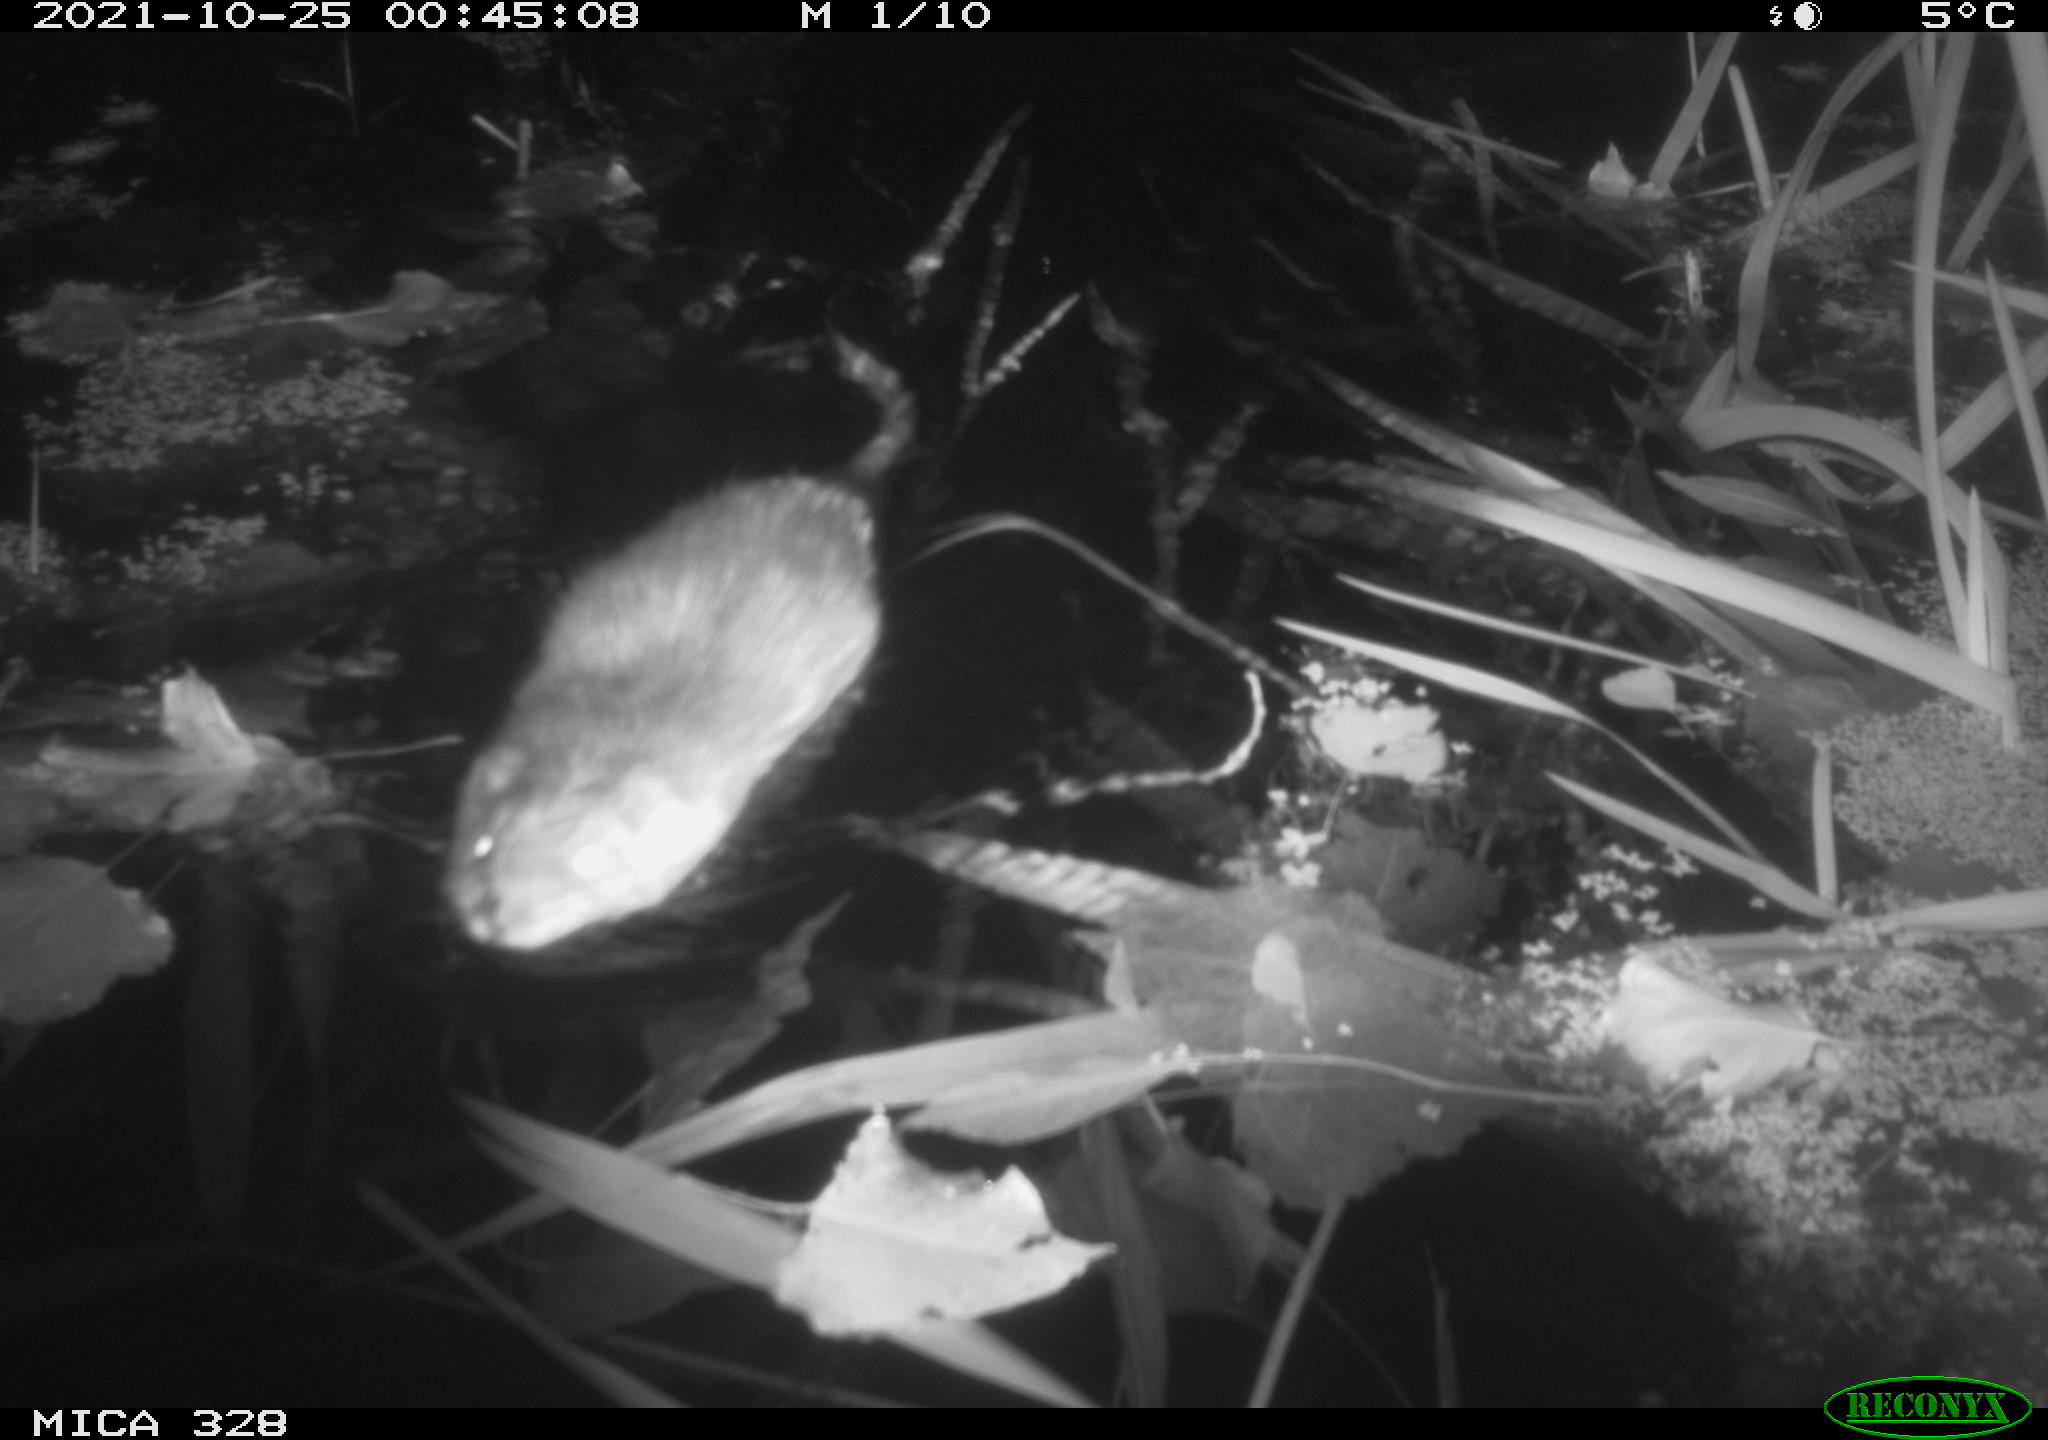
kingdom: Animalia
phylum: Chordata
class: Mammalia
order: Rodentia
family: Cricetidae
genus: Ondatra
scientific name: Ondatra zibethicus
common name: Muskrat
